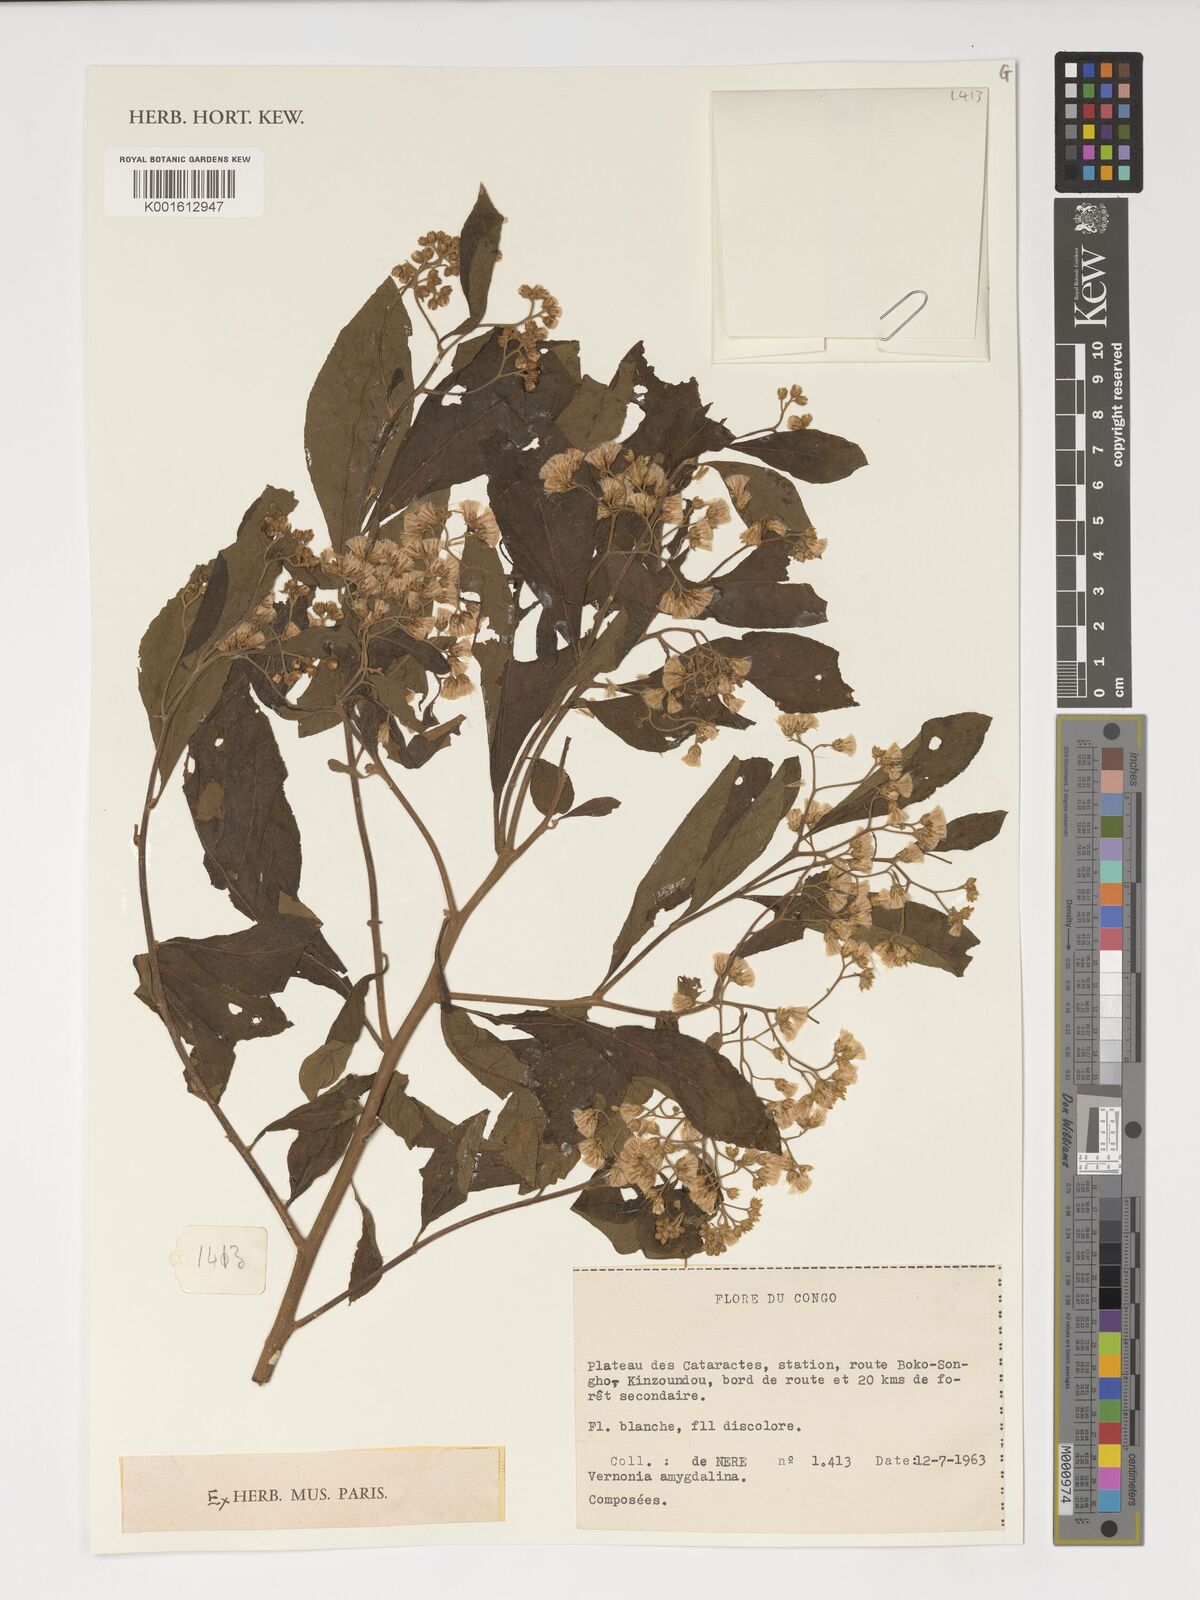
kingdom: Plantae
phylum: Tracheophyta
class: Magnoliopsida
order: Asterales
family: Asteraceae
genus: Gymnanthemum
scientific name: Gymnanthemum amygdalinum
